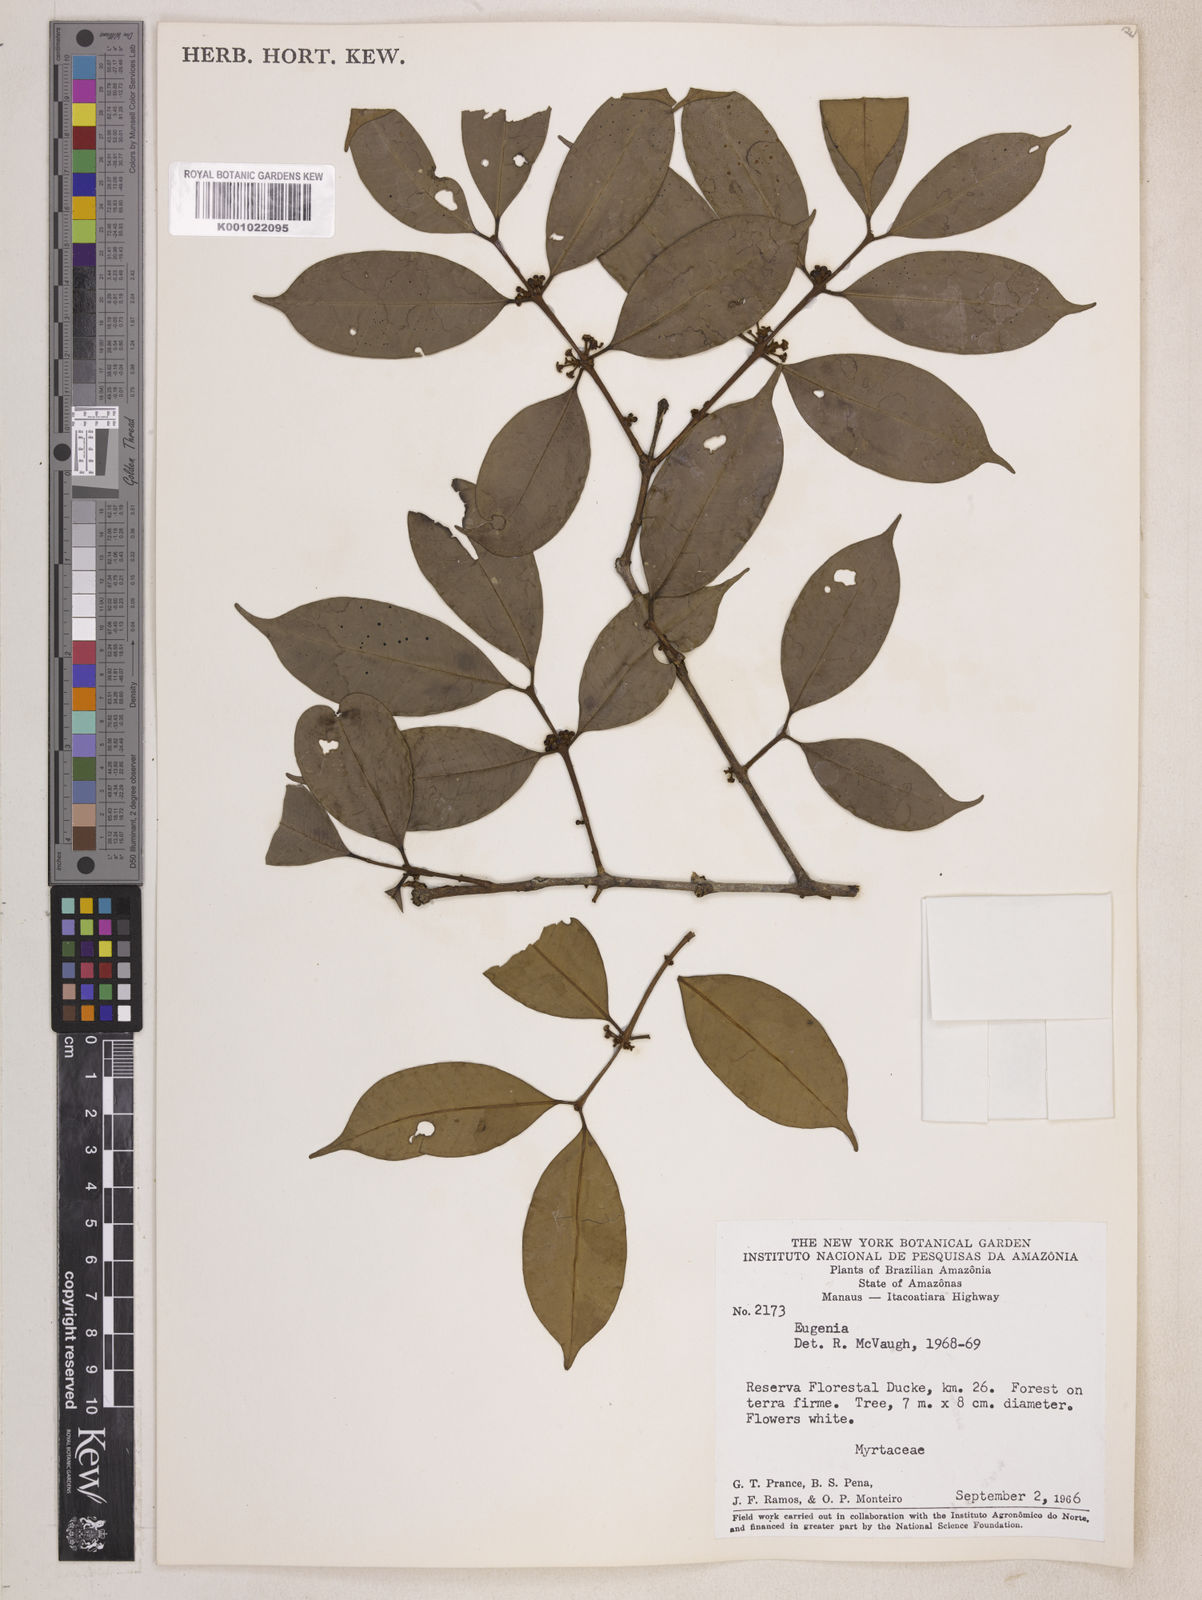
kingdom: Plantae
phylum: Tracheophyta
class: Magnoliopsida
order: Myrtales
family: Myrtaceae
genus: Eugenia
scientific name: Eugenia caducipetala
